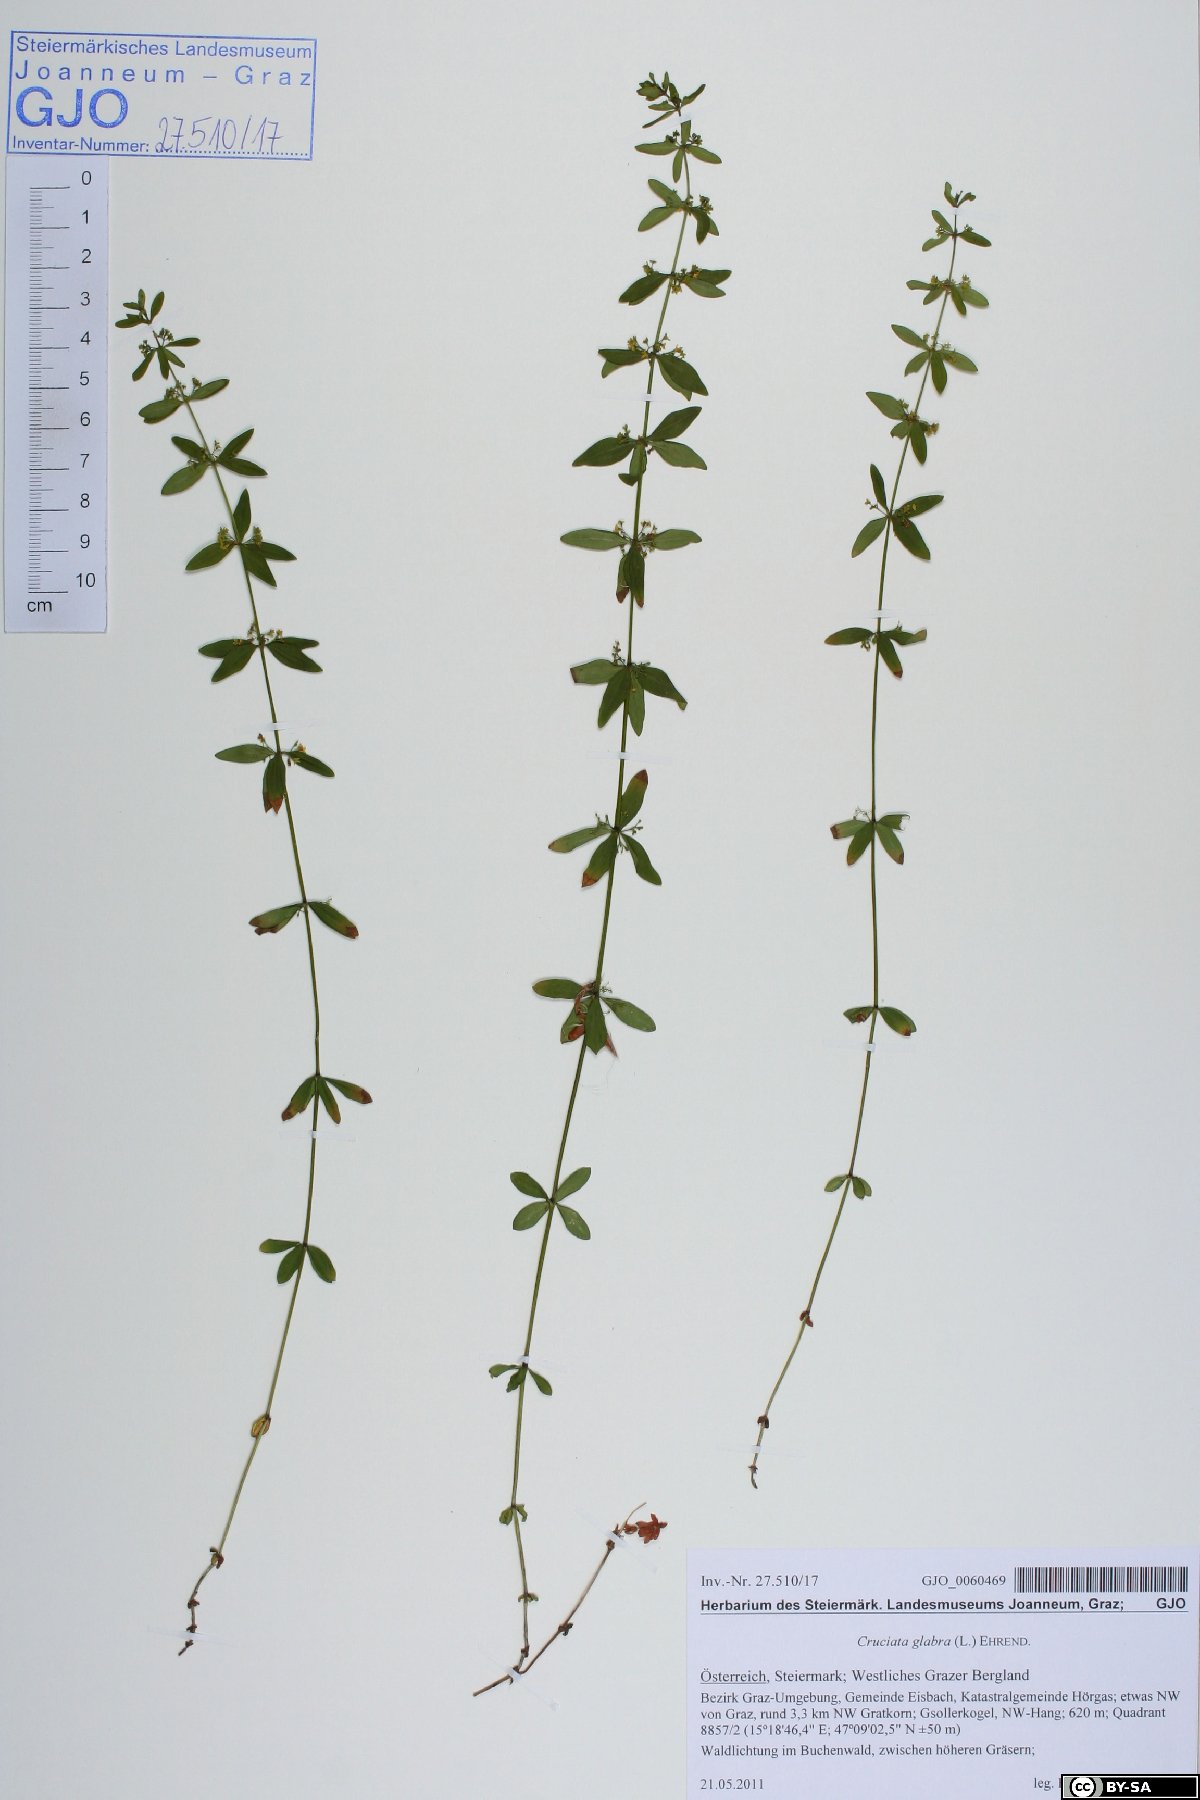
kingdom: Plantae
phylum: Tracheophyta
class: Magnoliopsida
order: Gentianales
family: Rubiaceae
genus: Cruciata
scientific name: Cruciata glabra
